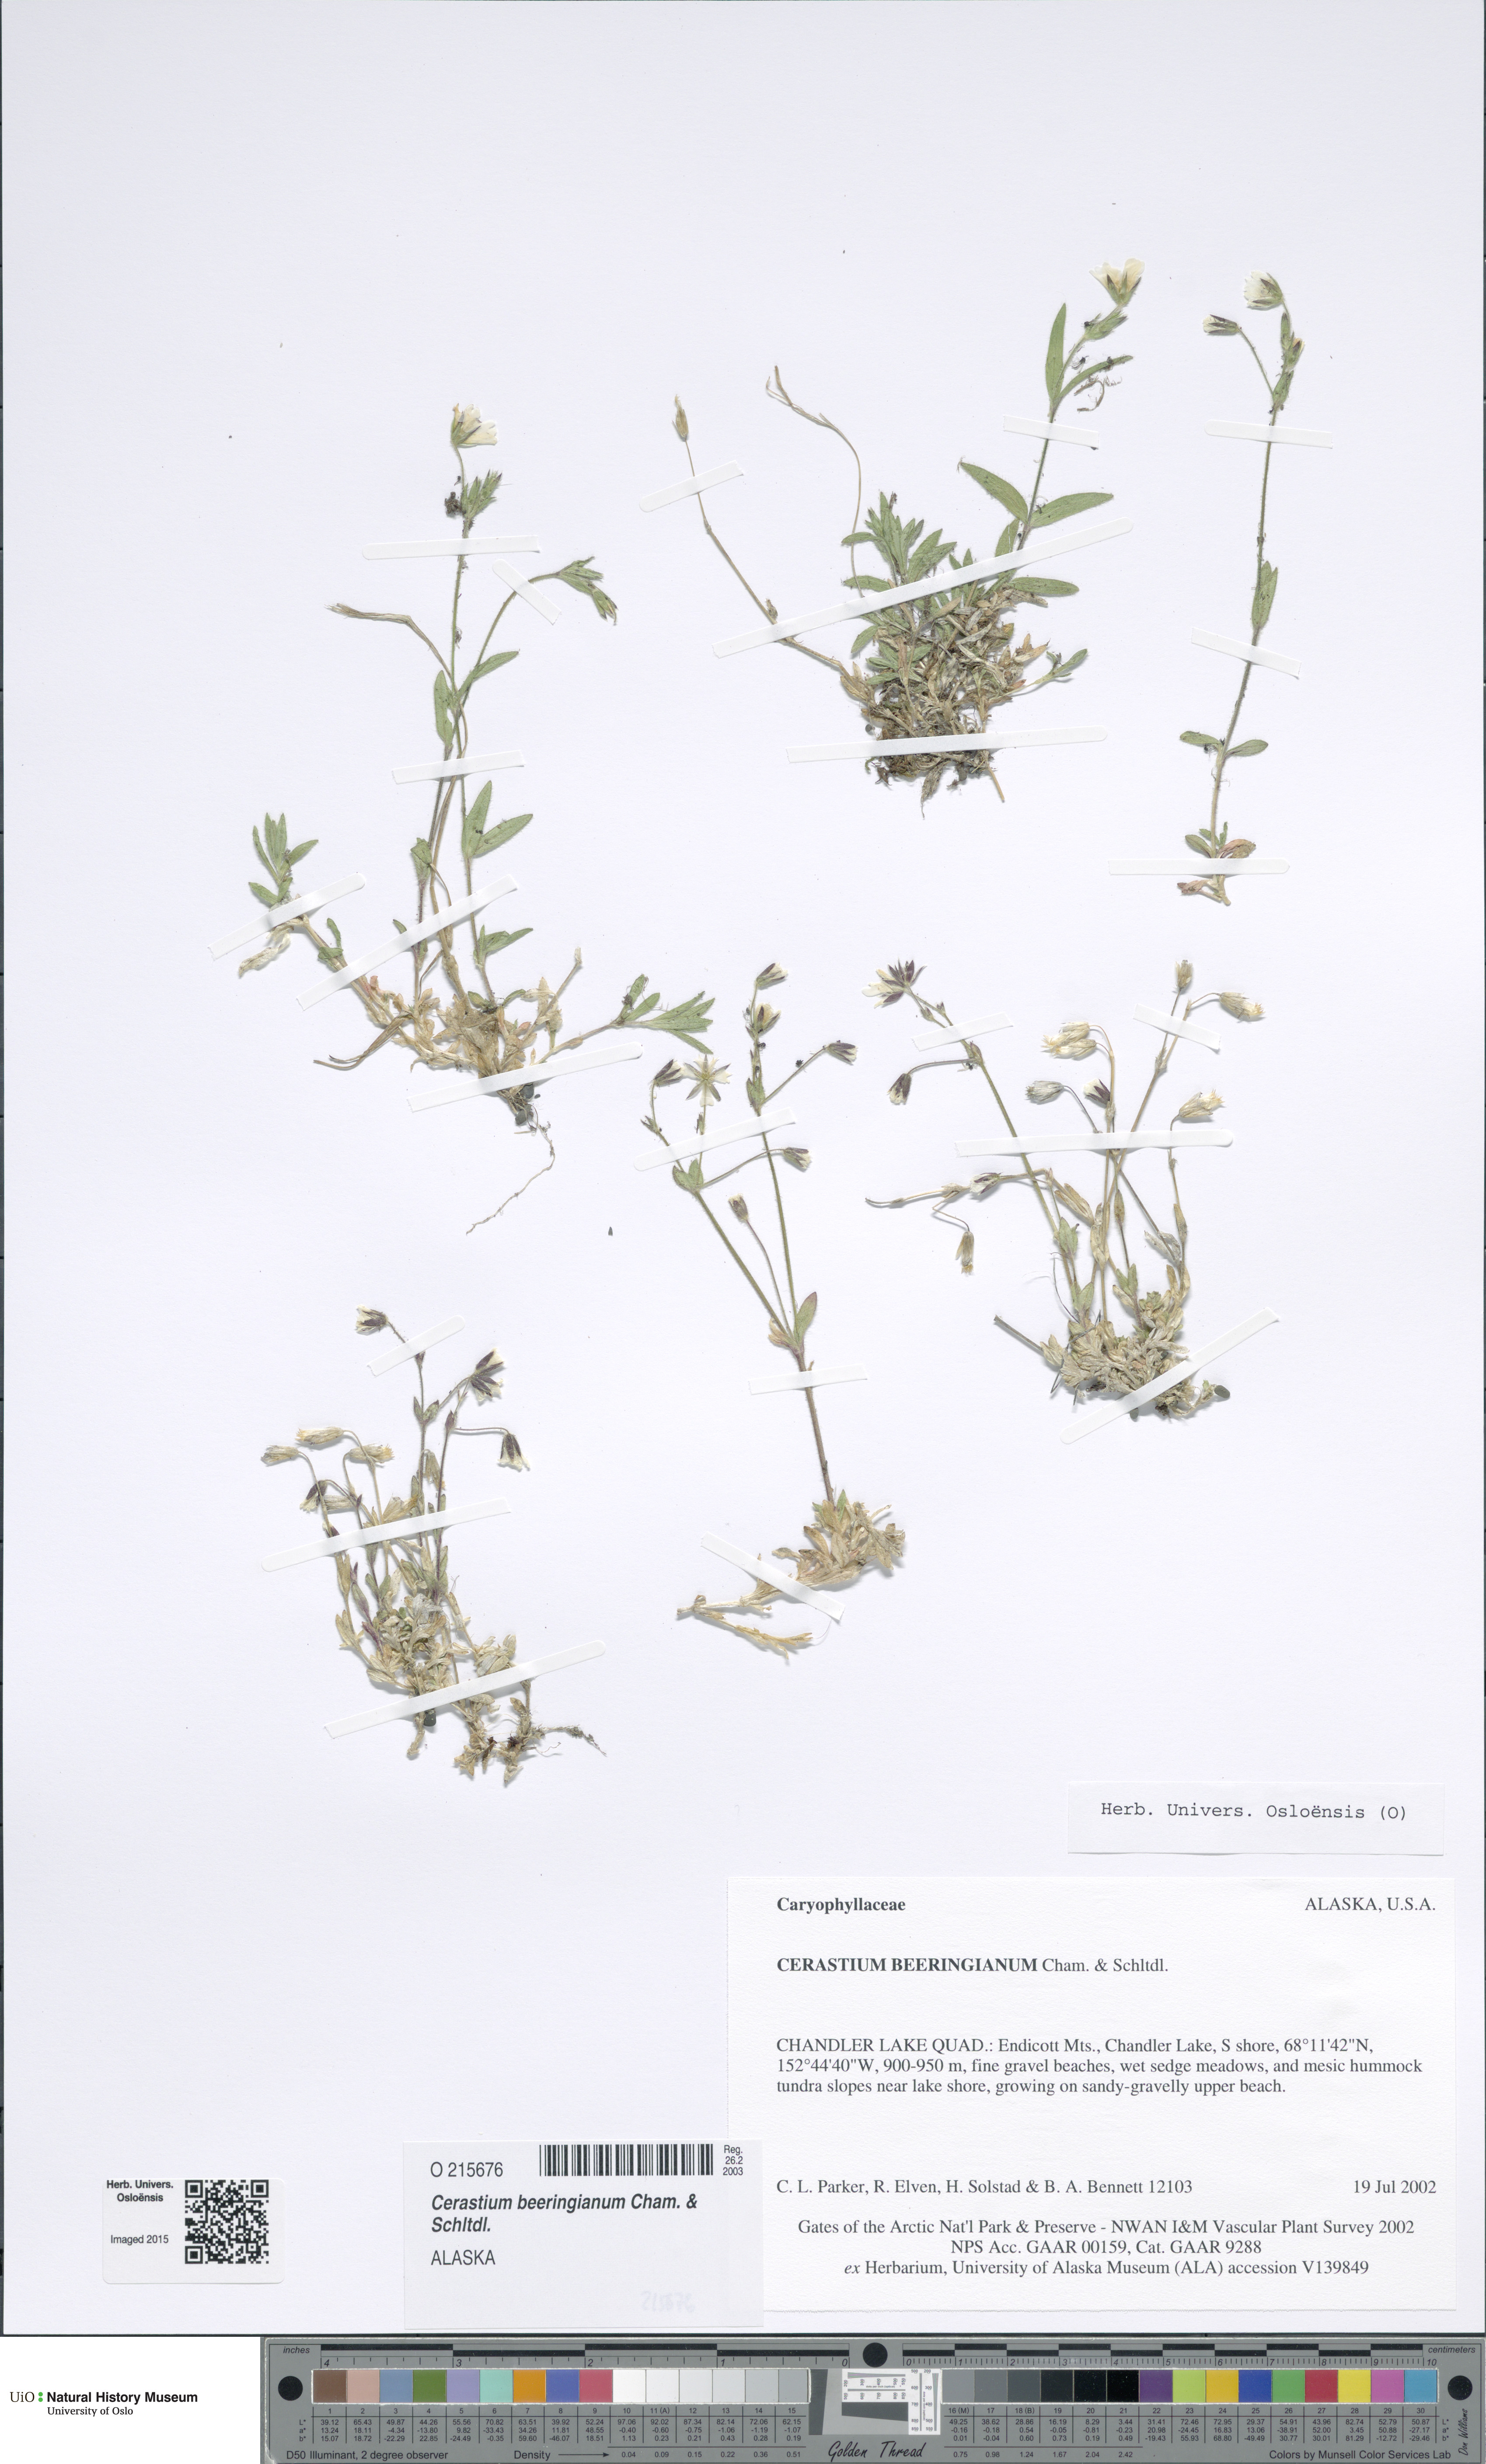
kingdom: Plantae
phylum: Tracheophyta
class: Magnoliopsida
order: Caryophyllales
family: Caryophyllaceae
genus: Cerastium
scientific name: Cerastium beeringianum
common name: Bering mouse-ear chickweed
